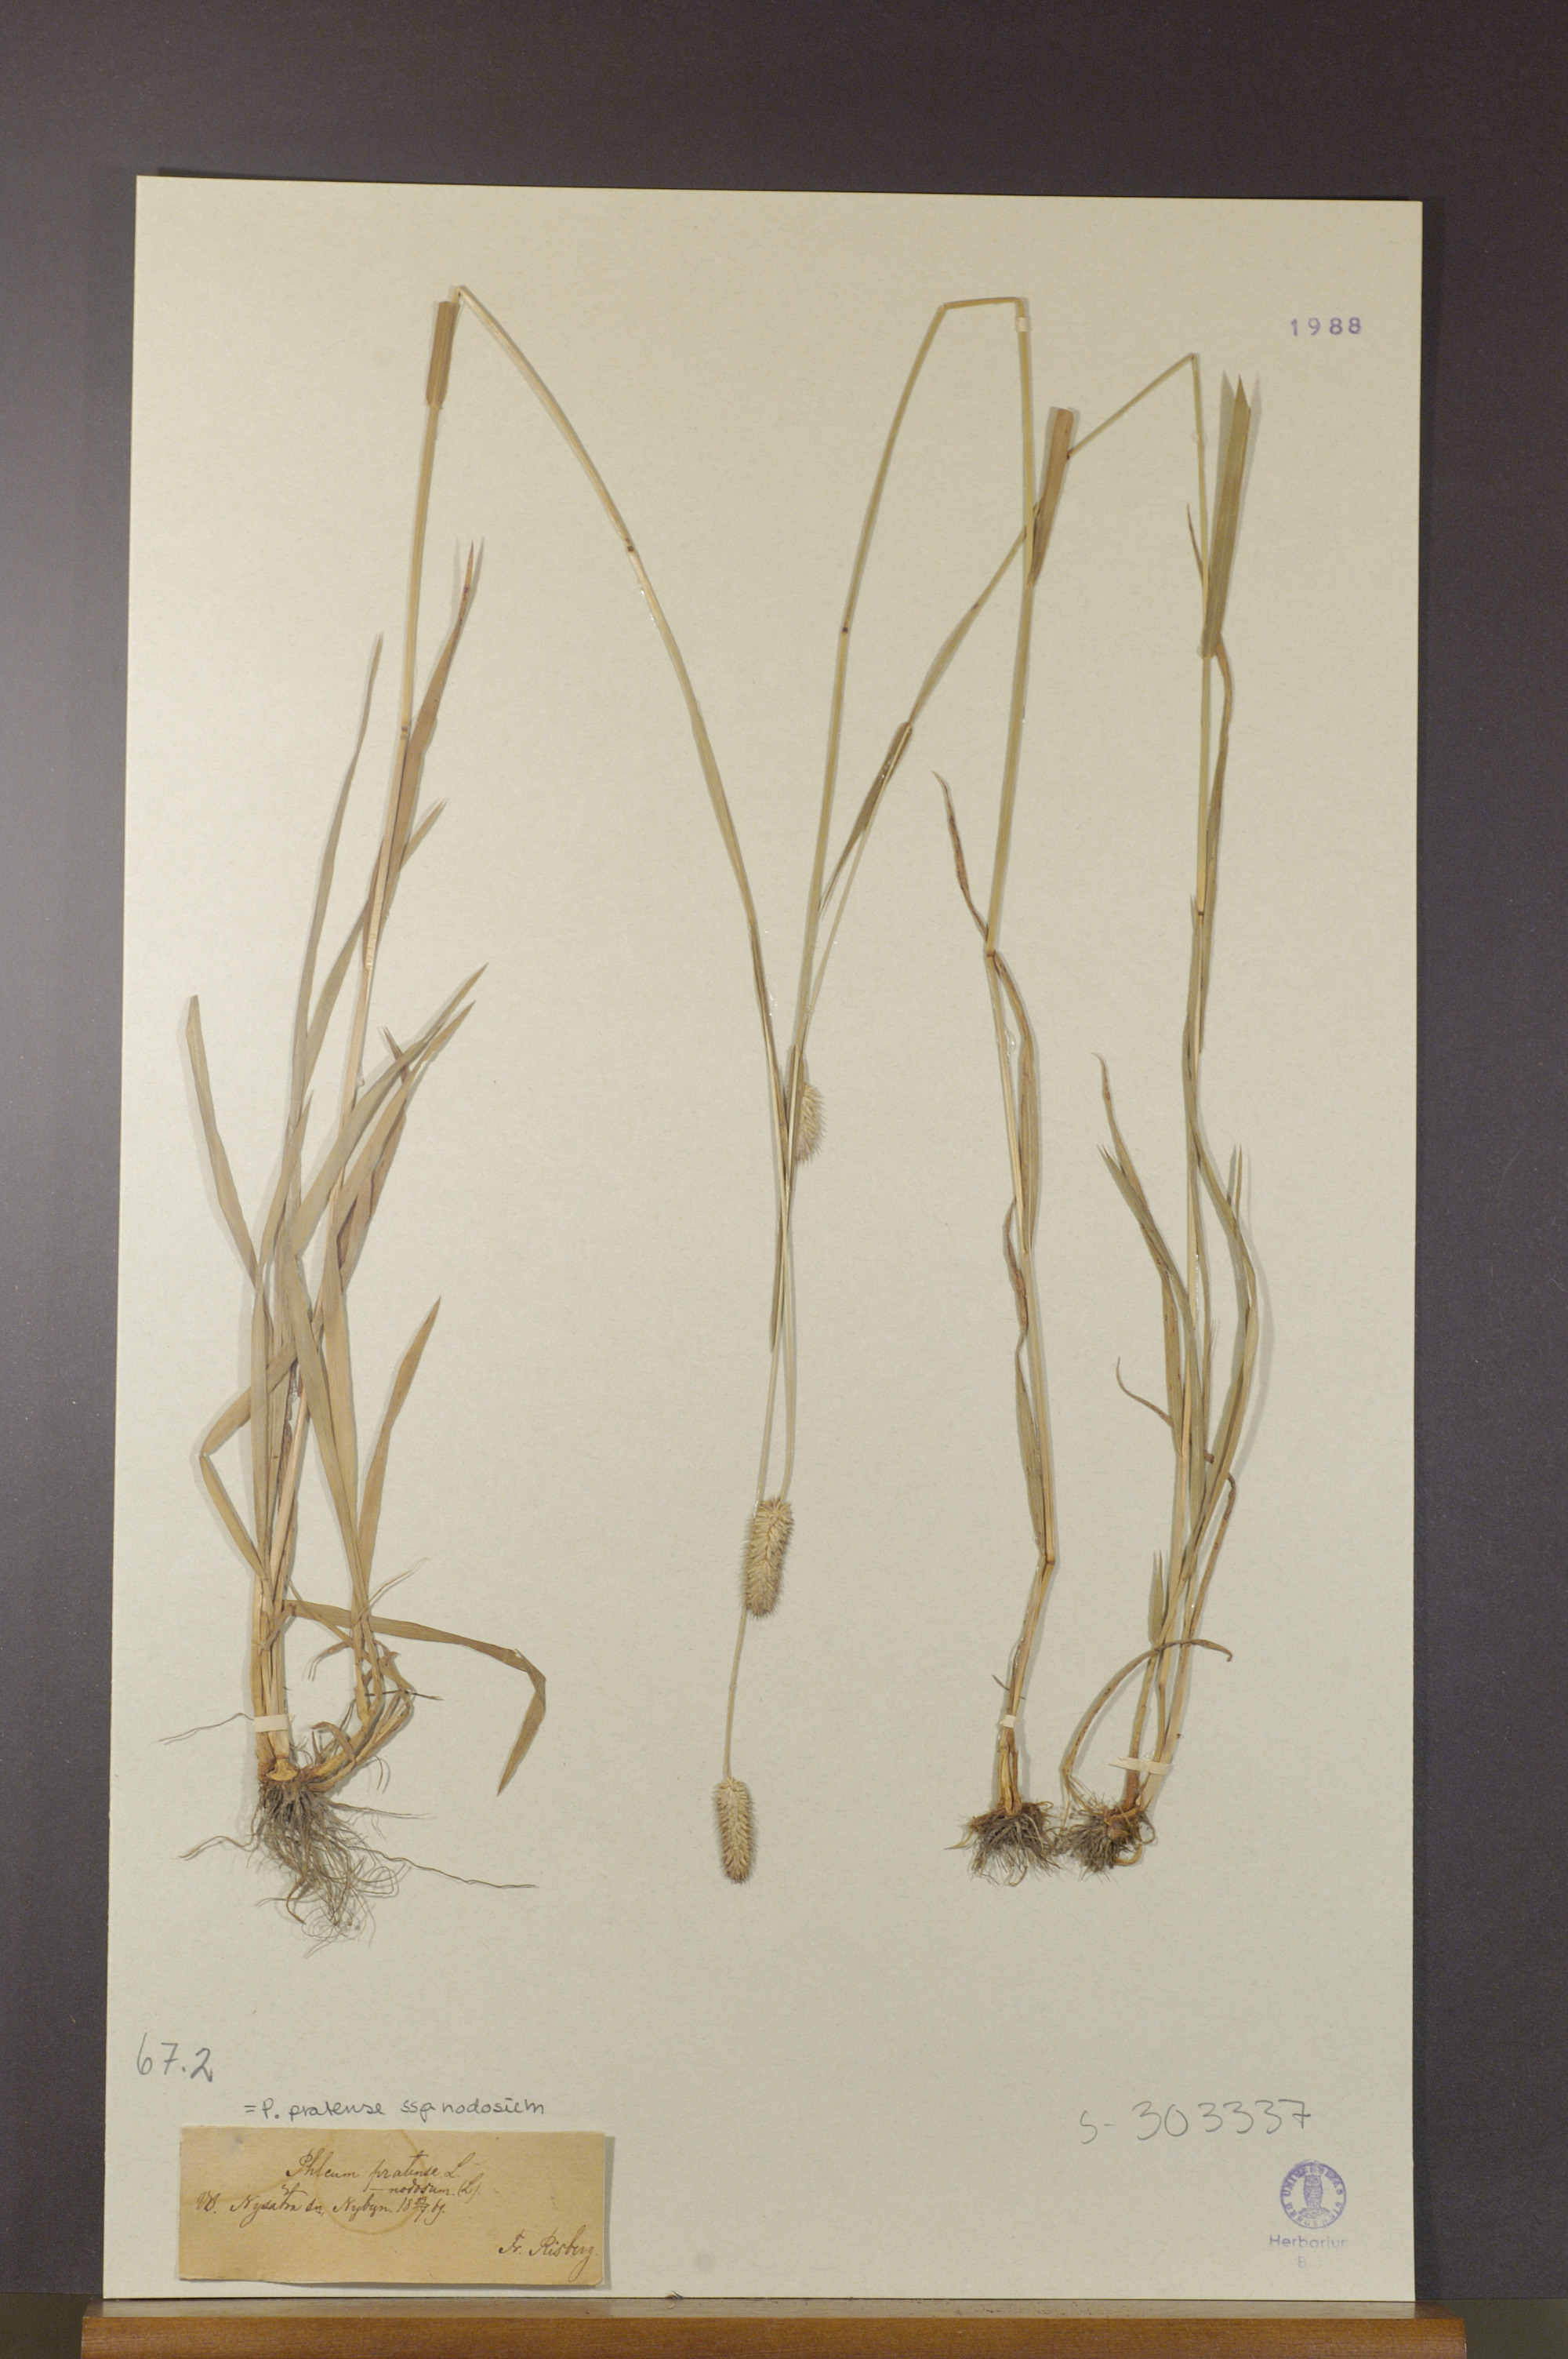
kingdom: Plantae
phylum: Tracheophyta
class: Liliopsida
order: Poales
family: Poaceae
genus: Phleum
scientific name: Phleum pratense
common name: Timothy grass
